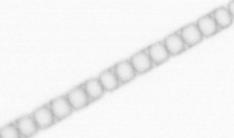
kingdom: Chromista
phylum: Ochrophyta
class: Bacillariophyceae
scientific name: Bacillariophyceae
